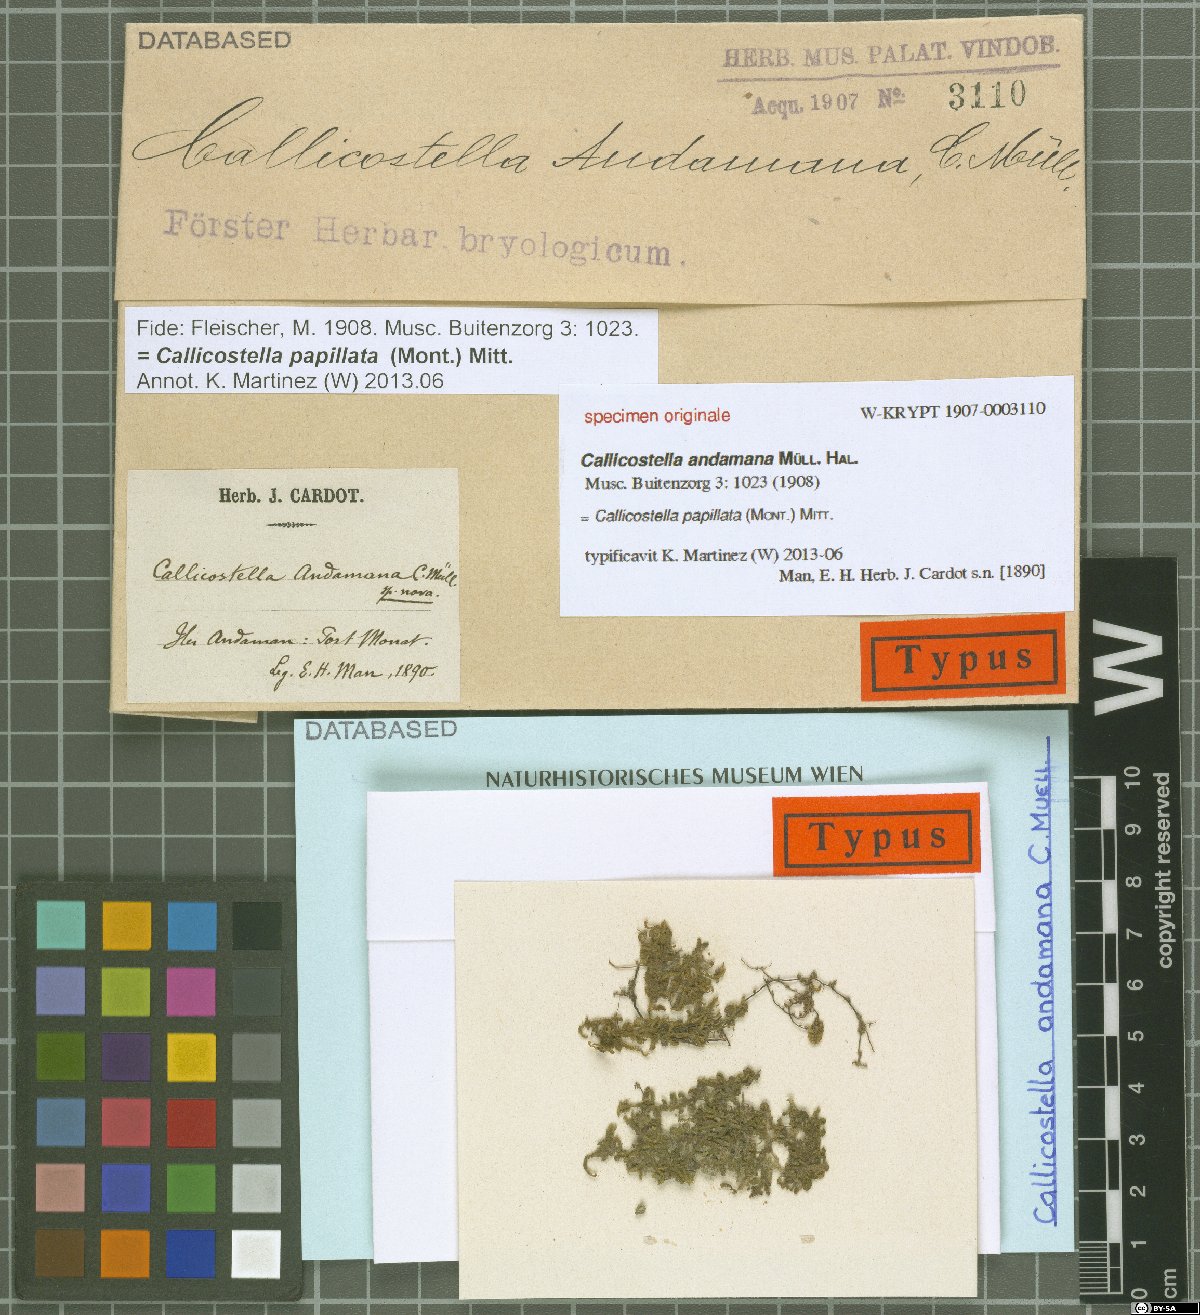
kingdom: Plantae
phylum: Bryophyta
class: Bryopsida
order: Hookeriales
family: Pilotrichaceae
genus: Callicostella
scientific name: Callicostella papillata
